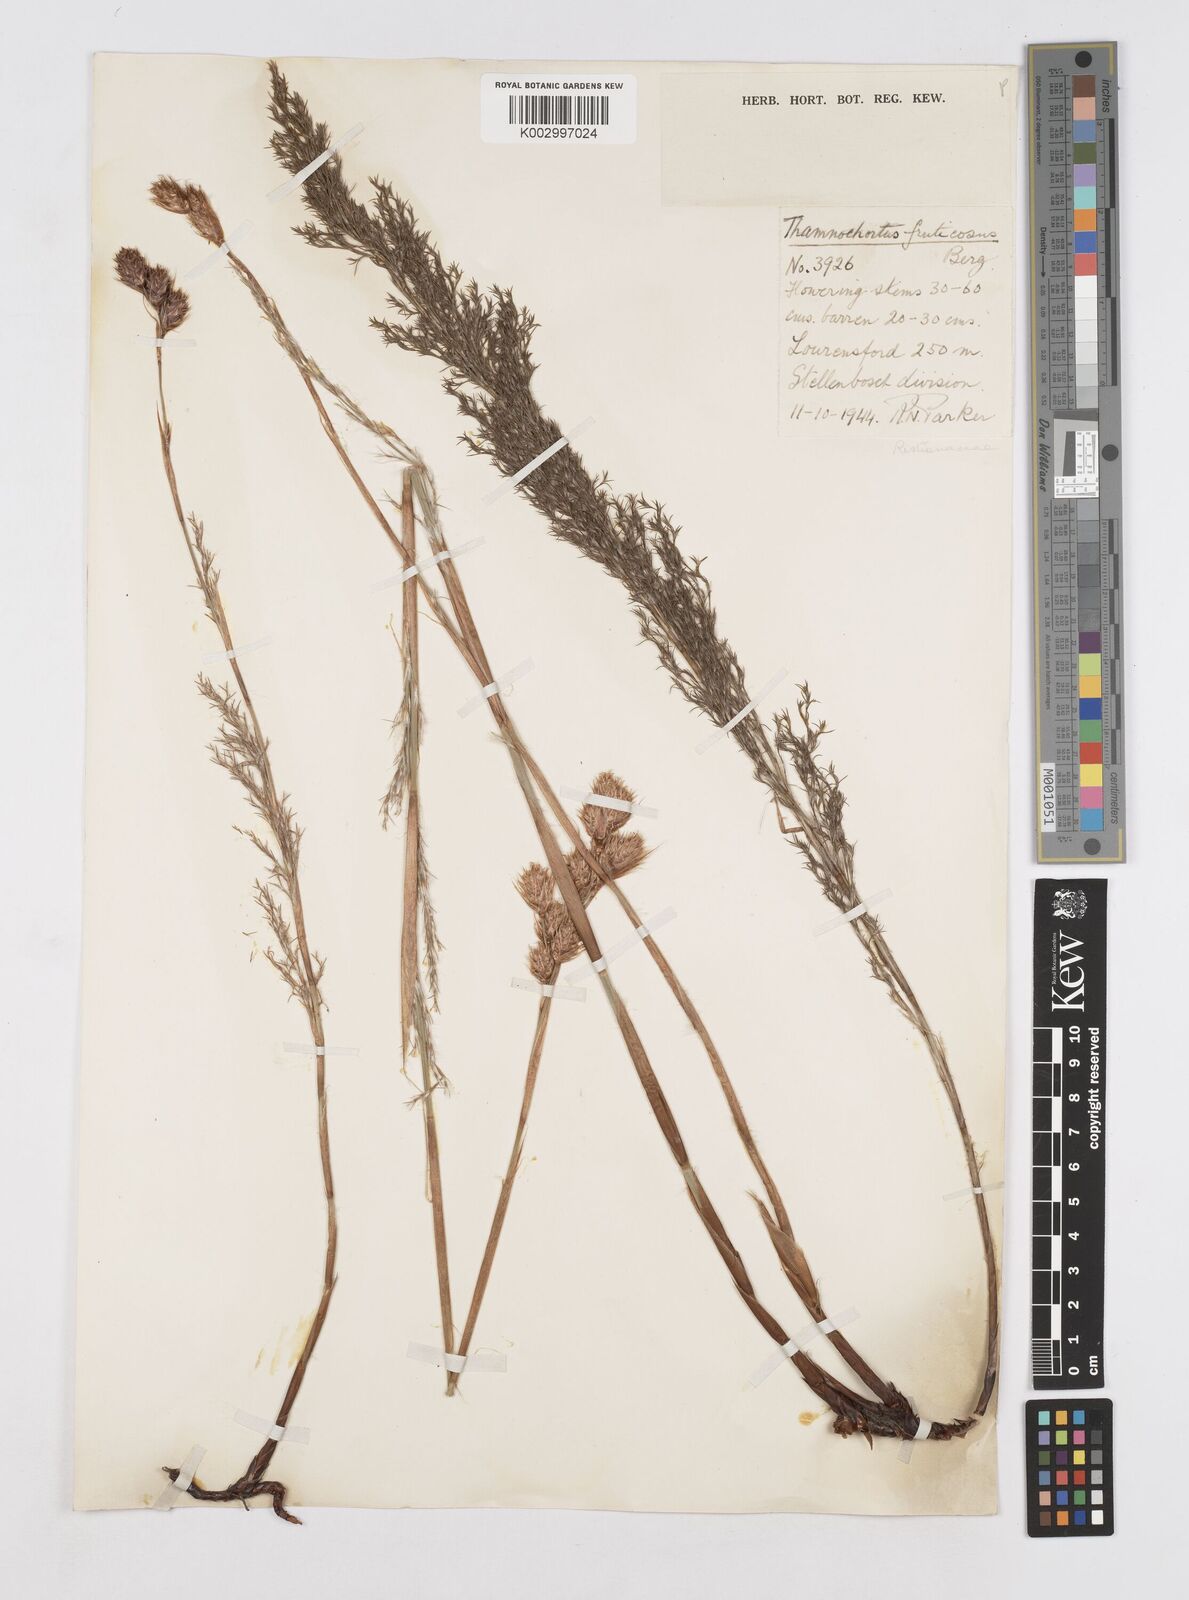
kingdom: Plantae
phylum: Tracheophyta
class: Liliopsida
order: Poales
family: Restionaceae
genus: Thamnochortus
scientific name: Thamnochortus fruticosus
